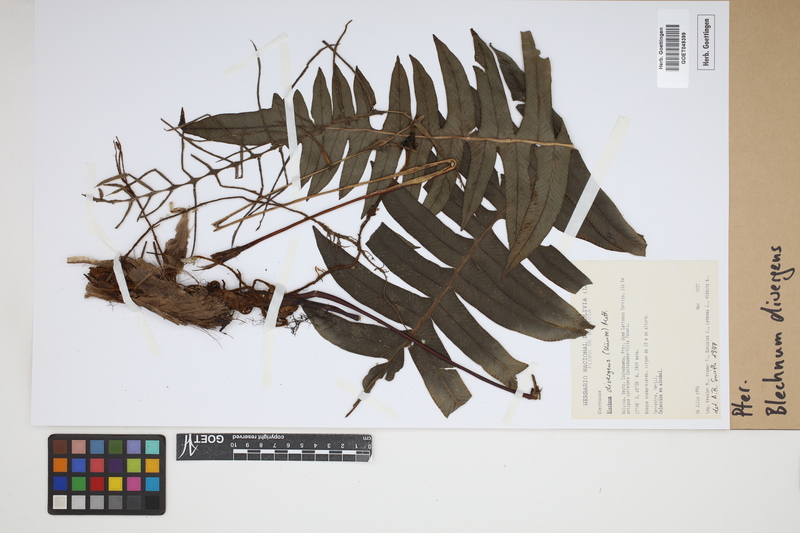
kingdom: Plantae
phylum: Tracheophyta
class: Polypodiopsida
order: Polypodiales
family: Blechnaceae
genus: Austroblechnum
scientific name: Austroblechnum divergens
